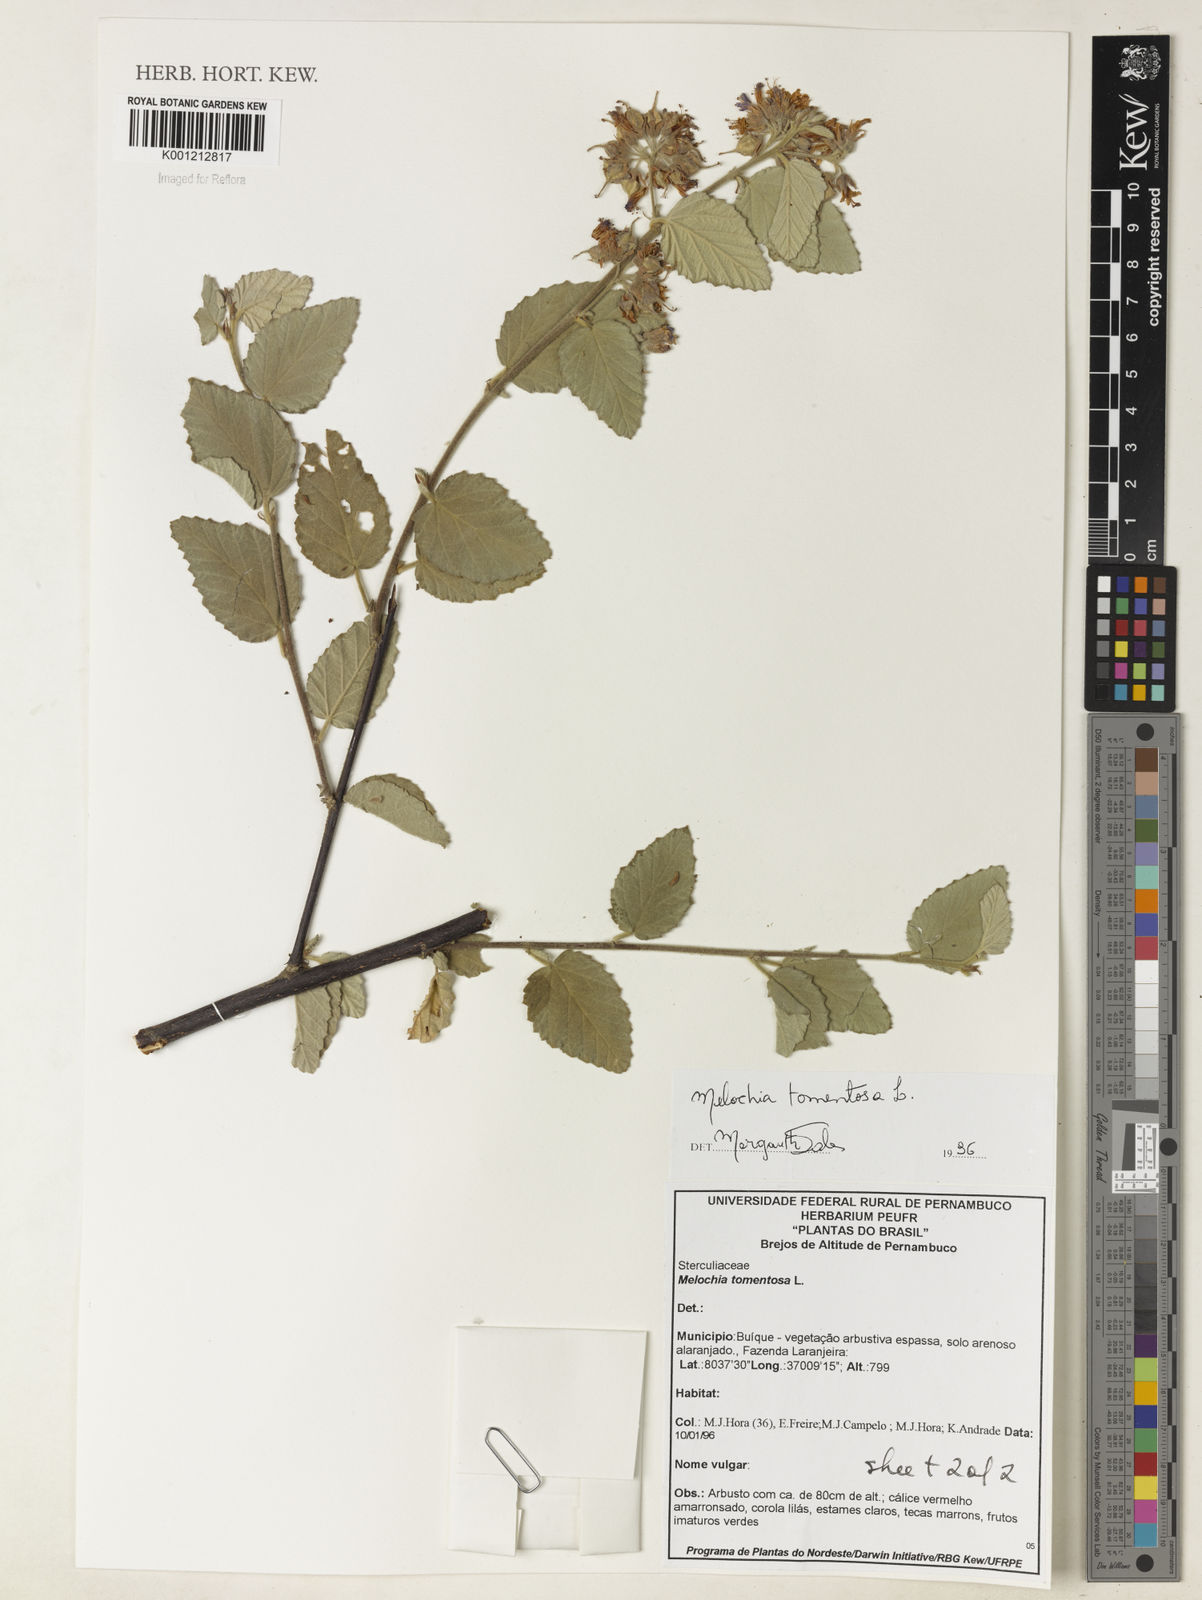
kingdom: Plantae
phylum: Tracheophyta
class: Magnoliopsida
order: Malvales
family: Malvaceae
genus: Melochia
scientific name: Melochia tomentosa
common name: Black torch
